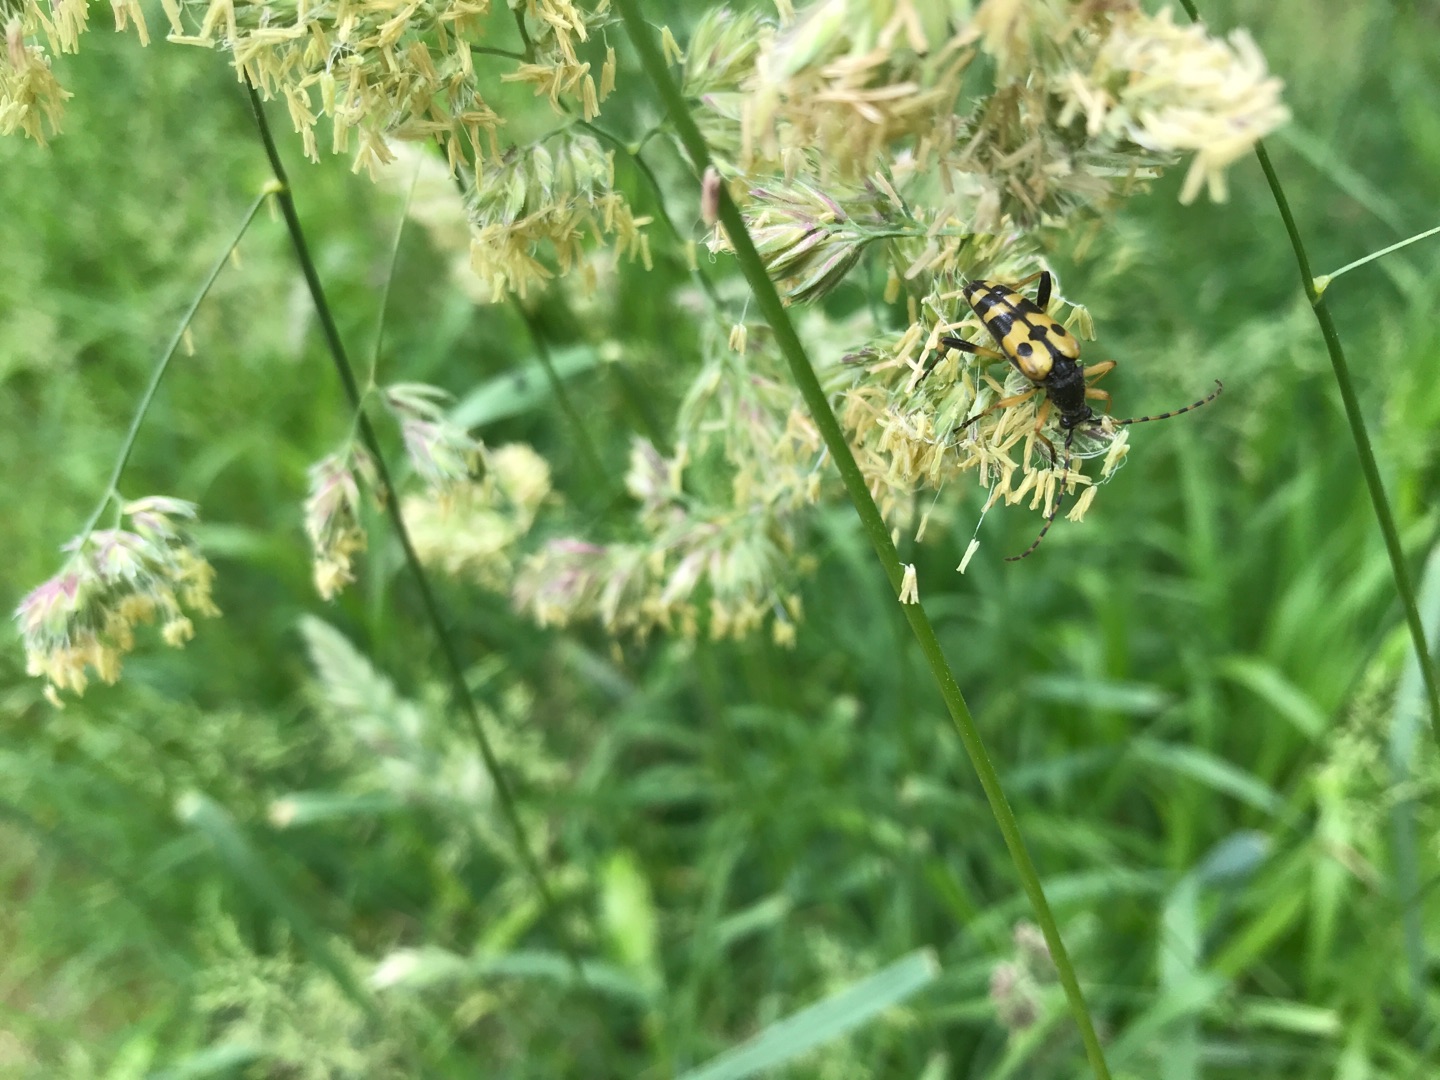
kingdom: Animalia
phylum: Arthropoda
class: Insecta
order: Coleoptera
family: Cerambycidae
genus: Rutpela
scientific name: Rutpela maculata
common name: Sydlig blomsterbuk
